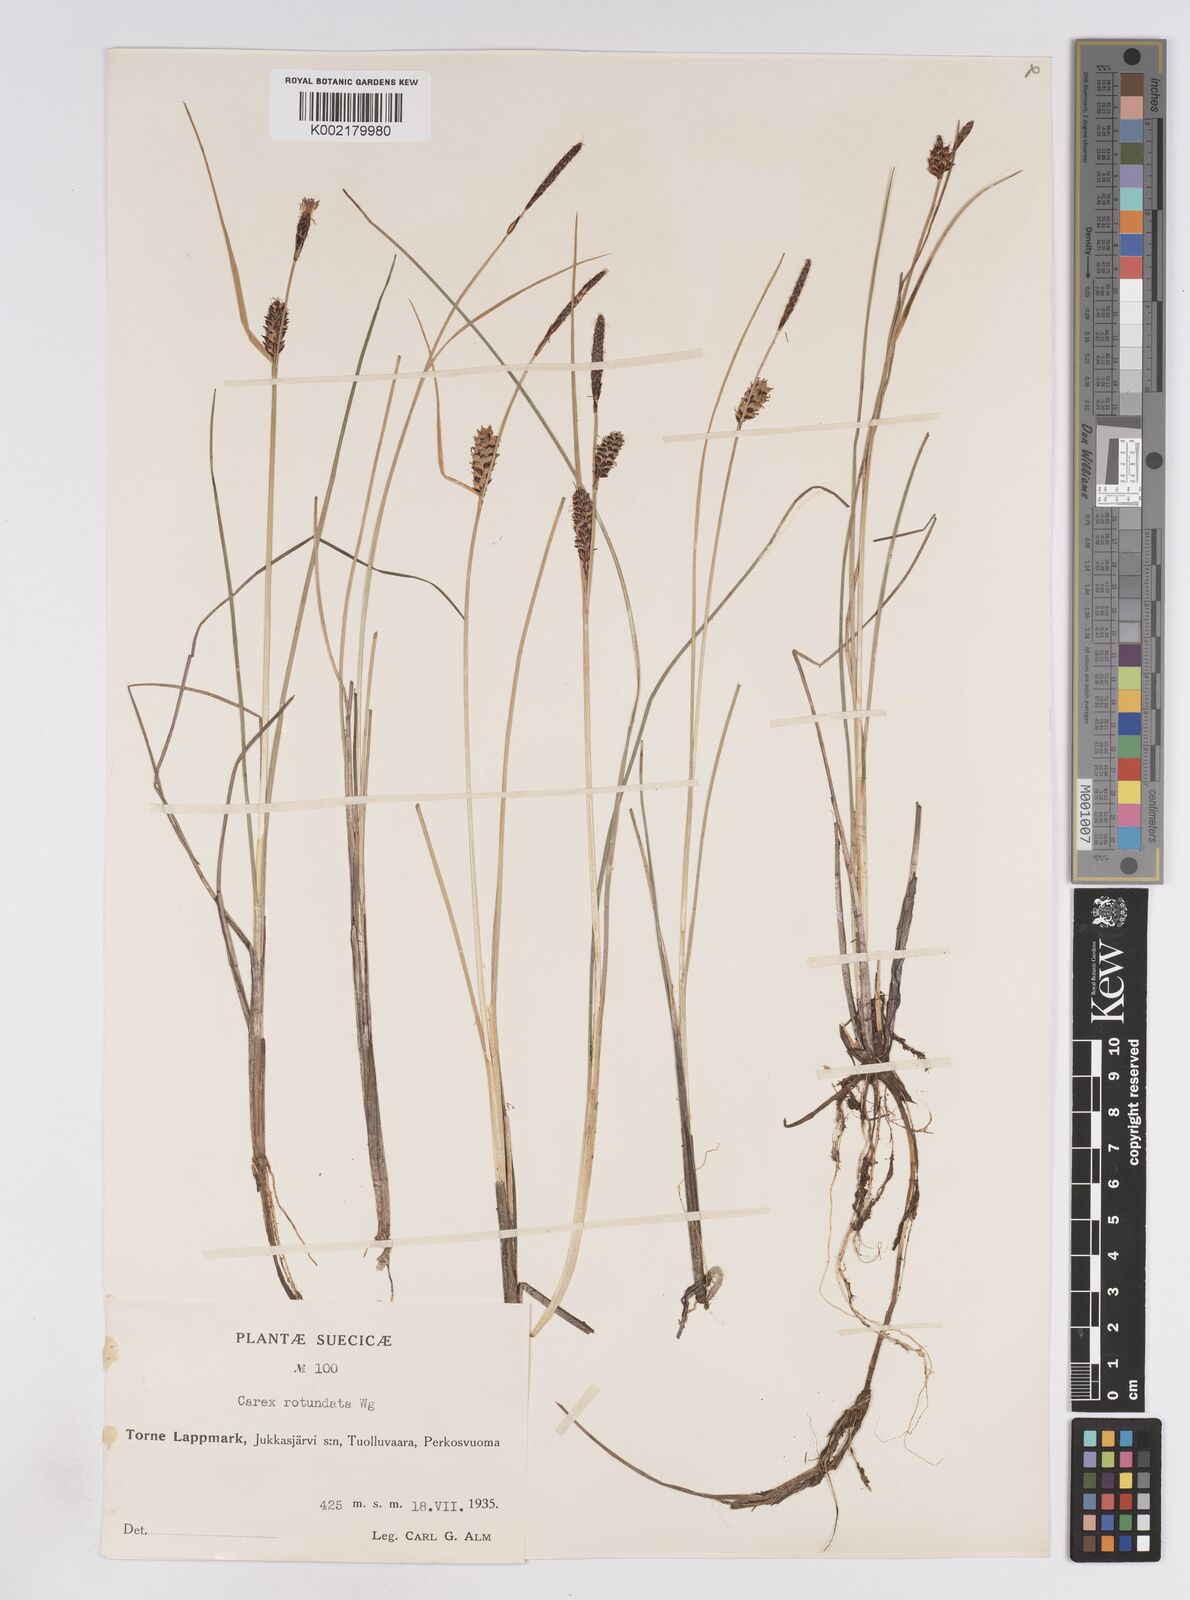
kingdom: Plantae
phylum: Tracheophyta
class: Liliopsida
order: Poales
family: Cyperaceae
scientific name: Cyperaceae
